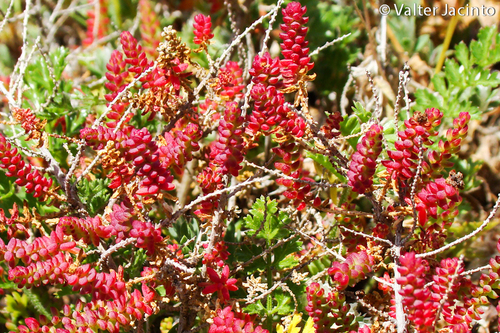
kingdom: Plantae
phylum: Tracheophyta
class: Magnoliopsida
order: Saxifragales
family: Crassulaceae
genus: Crassula
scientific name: Crassula tillaea
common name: Mossy stonecrop
